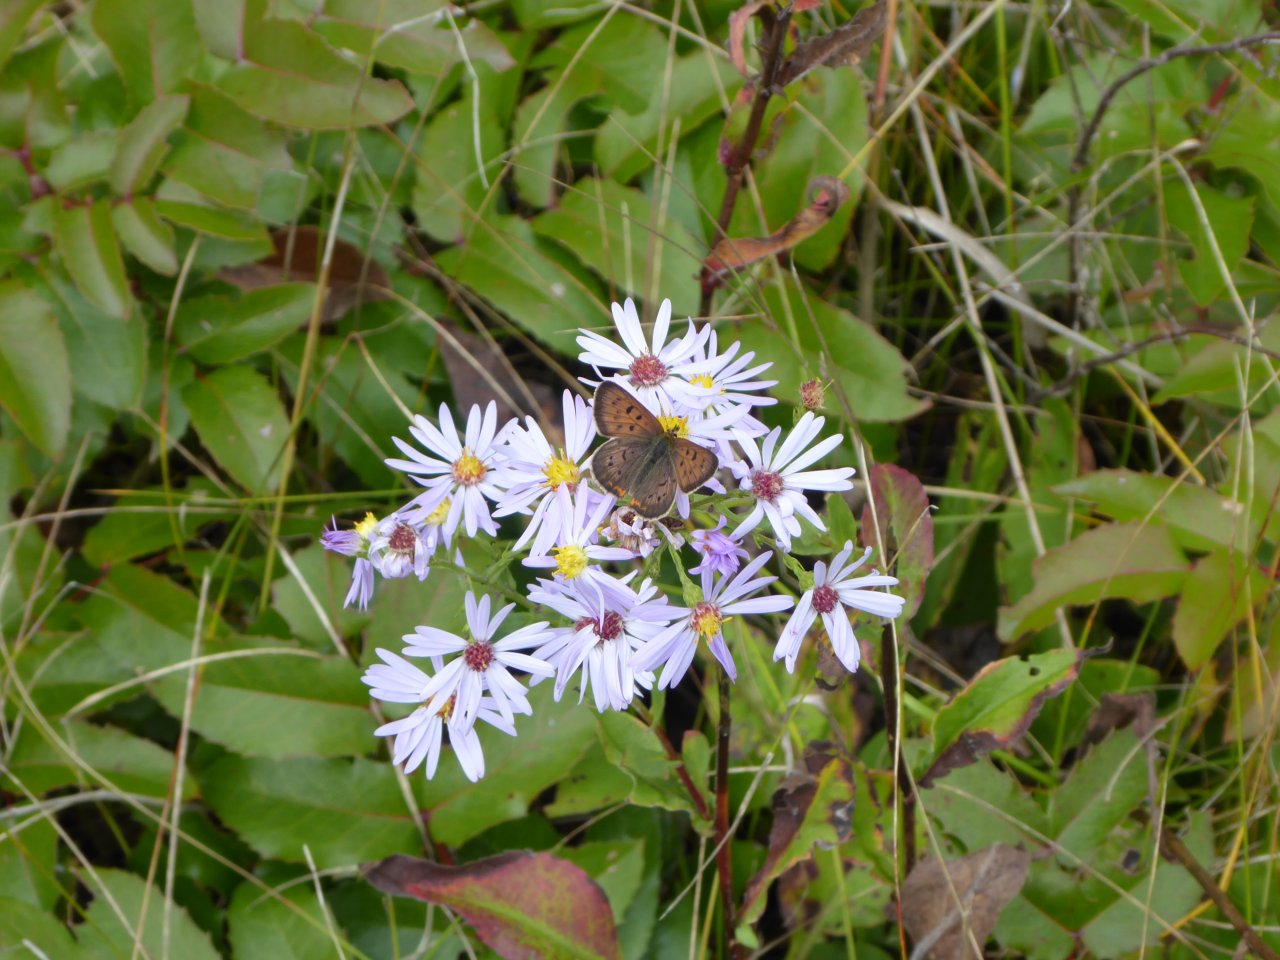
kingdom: Animalia
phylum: Arthropoda
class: Insecta
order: Lepidoptera
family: Lycaenidae
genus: Epidemia
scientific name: Epidemia dorcas
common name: Dorcas Copper
